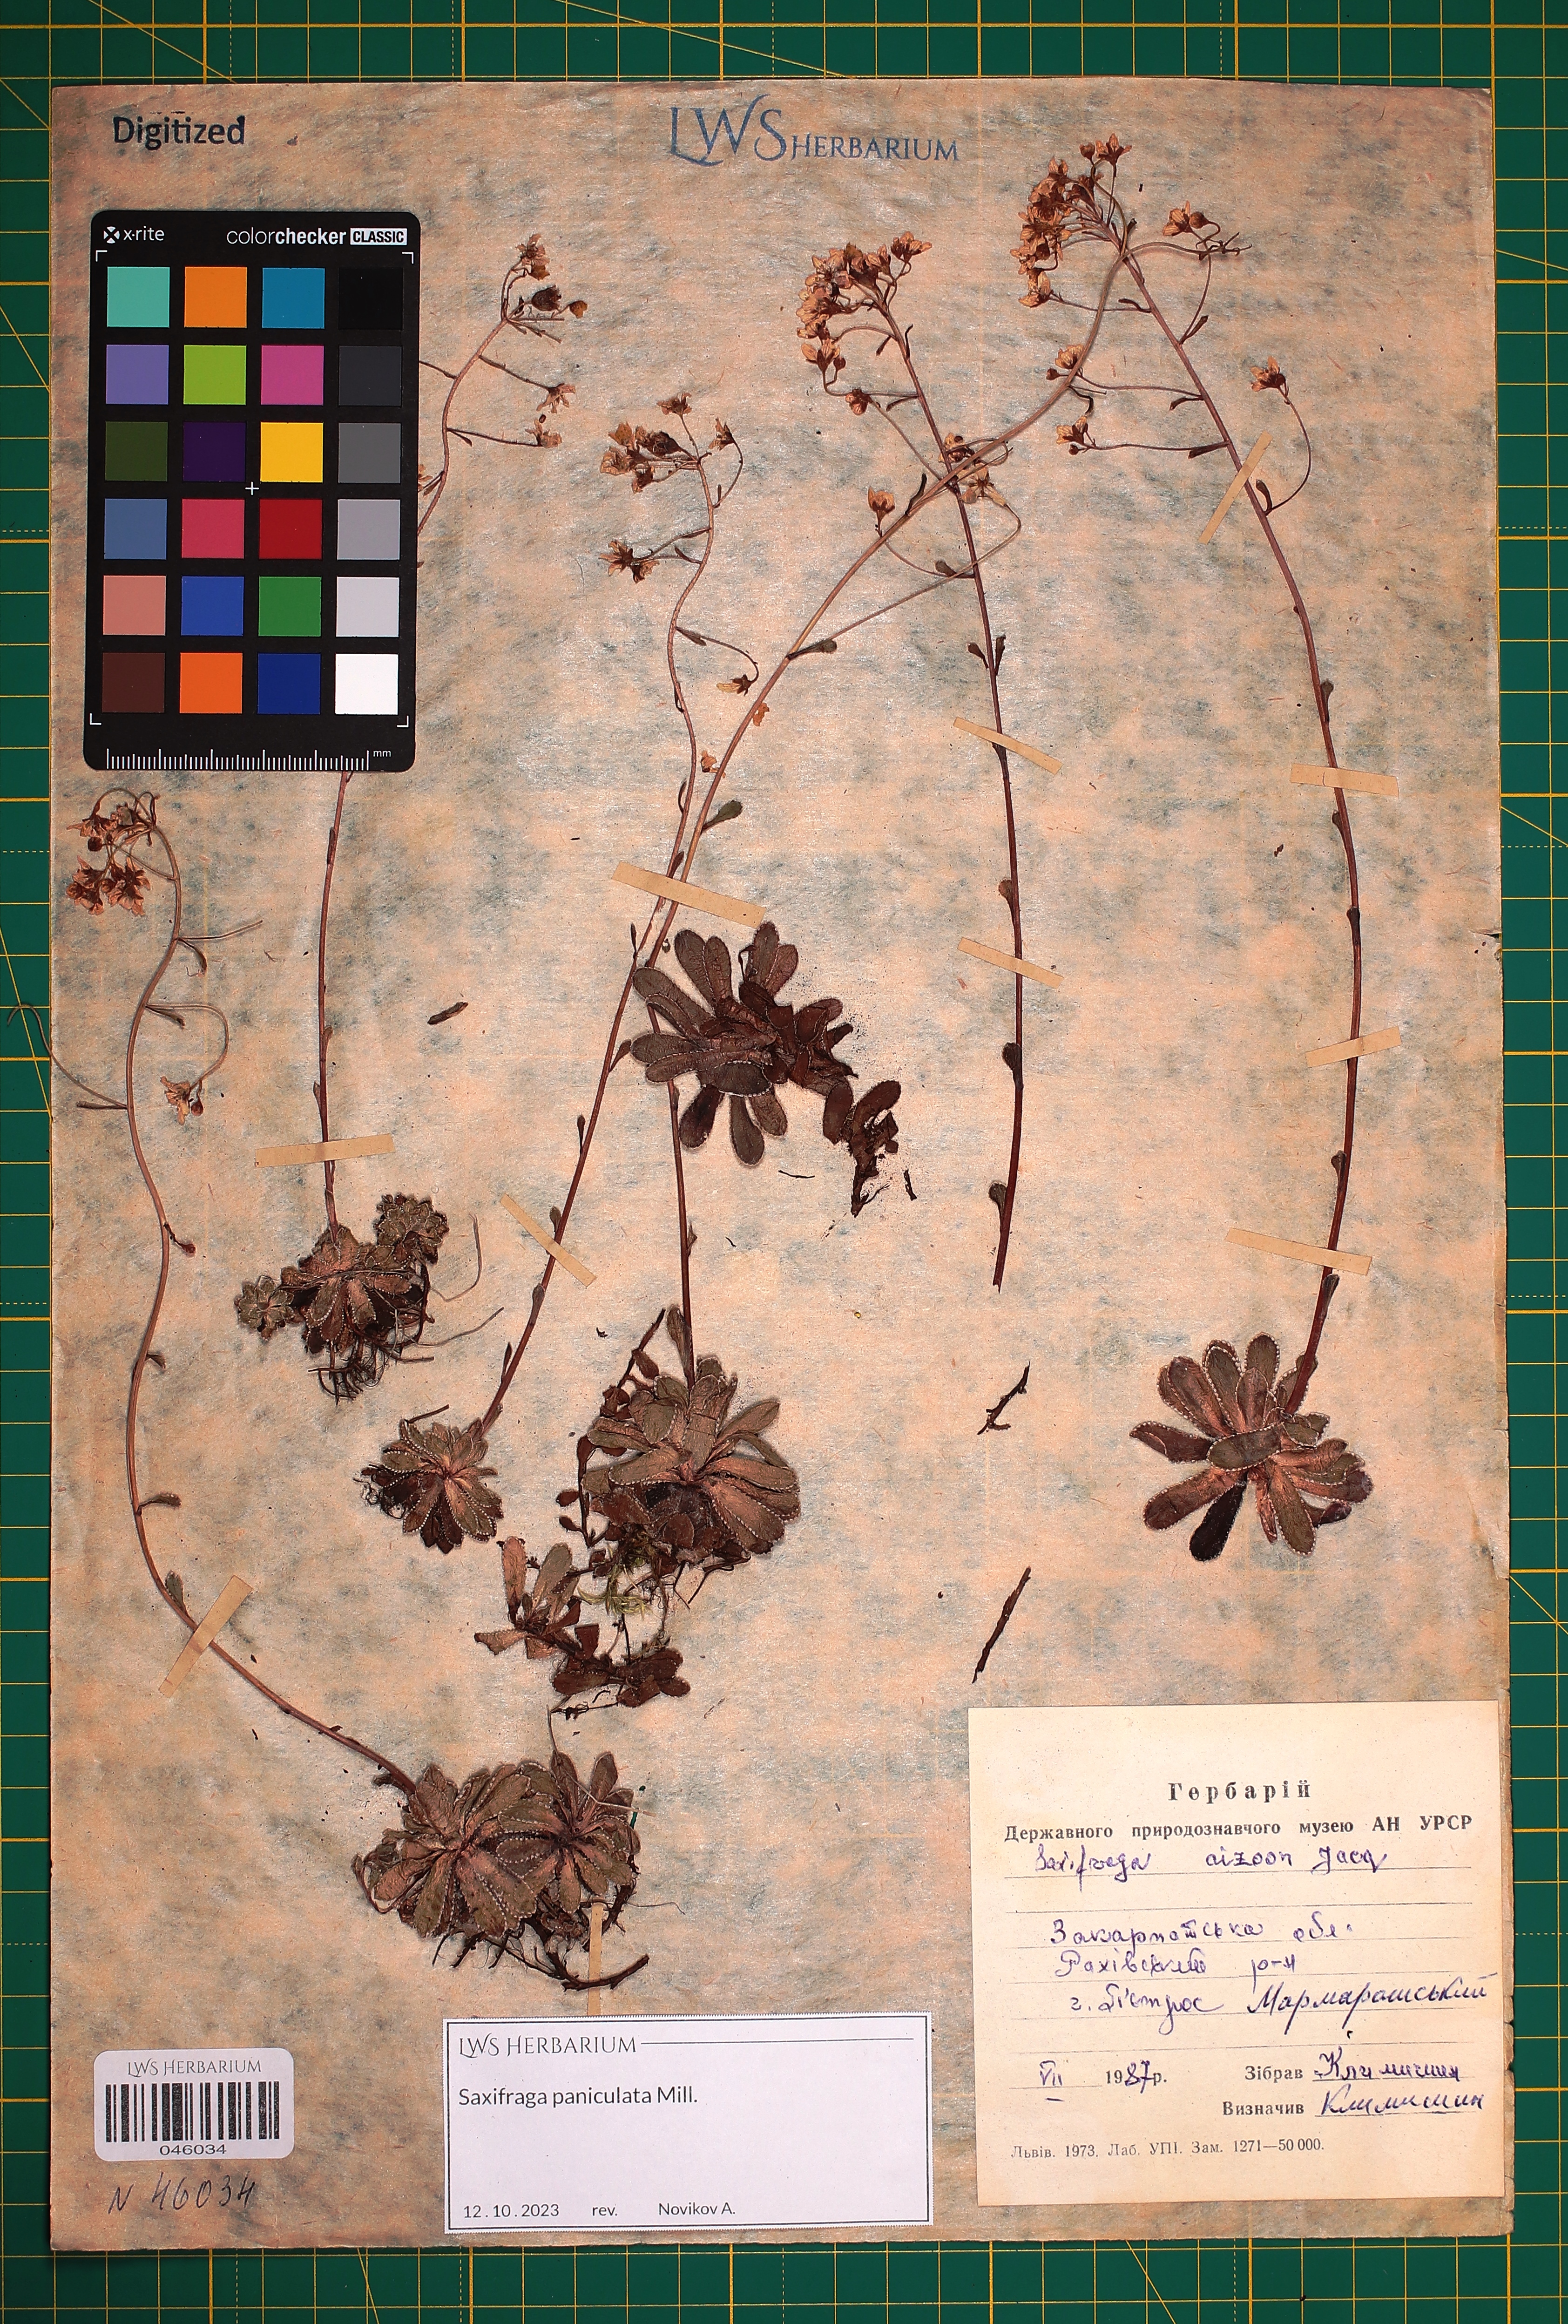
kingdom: Plantae
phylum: Tracheophyta
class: Magnoliopsida
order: Saxifragales
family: Saxifragaceae
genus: Saxifraga
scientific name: Saxifraga paniculata
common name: Livelong saxifrage
